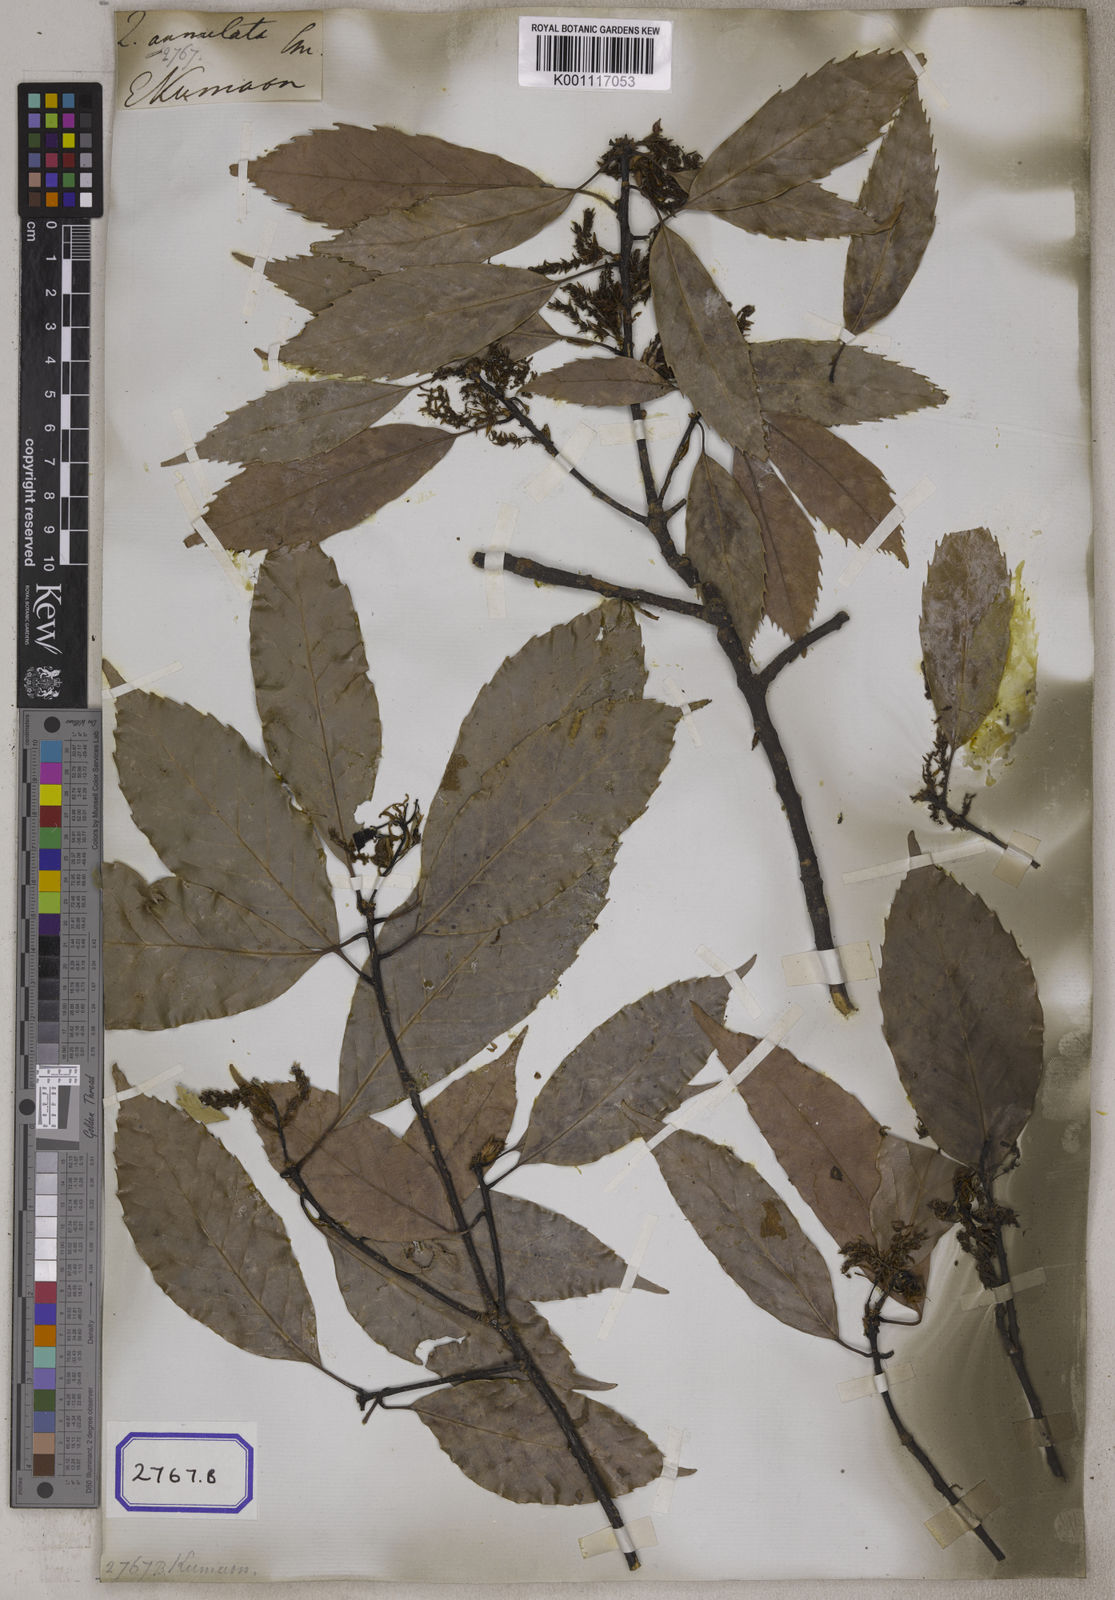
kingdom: Plantae
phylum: Tracheophyta
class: Magnoliopsida
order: Fagales
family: Fagaceae
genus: Quercus
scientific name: Quercus annulata
